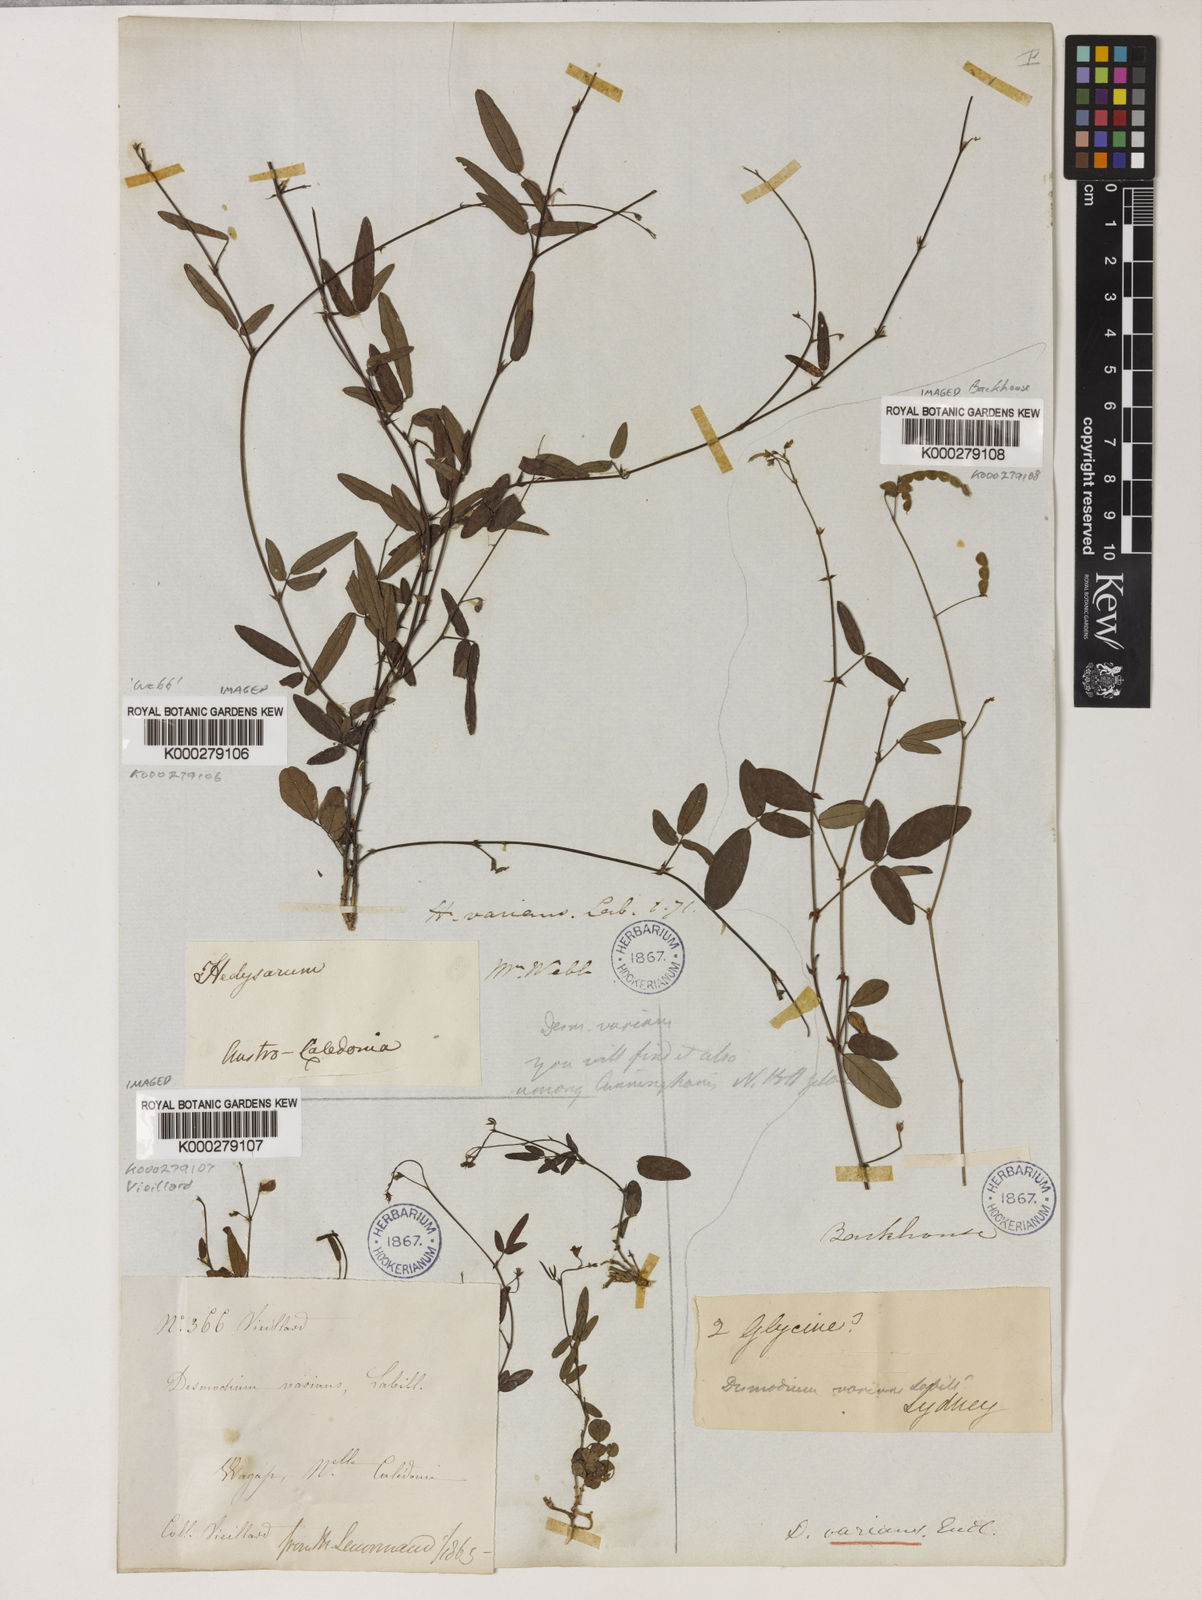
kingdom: Plantae
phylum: Tracheophyta
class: Magnoliopsida
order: Fabales
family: Fabaceae
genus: Grona
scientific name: Grona varians
